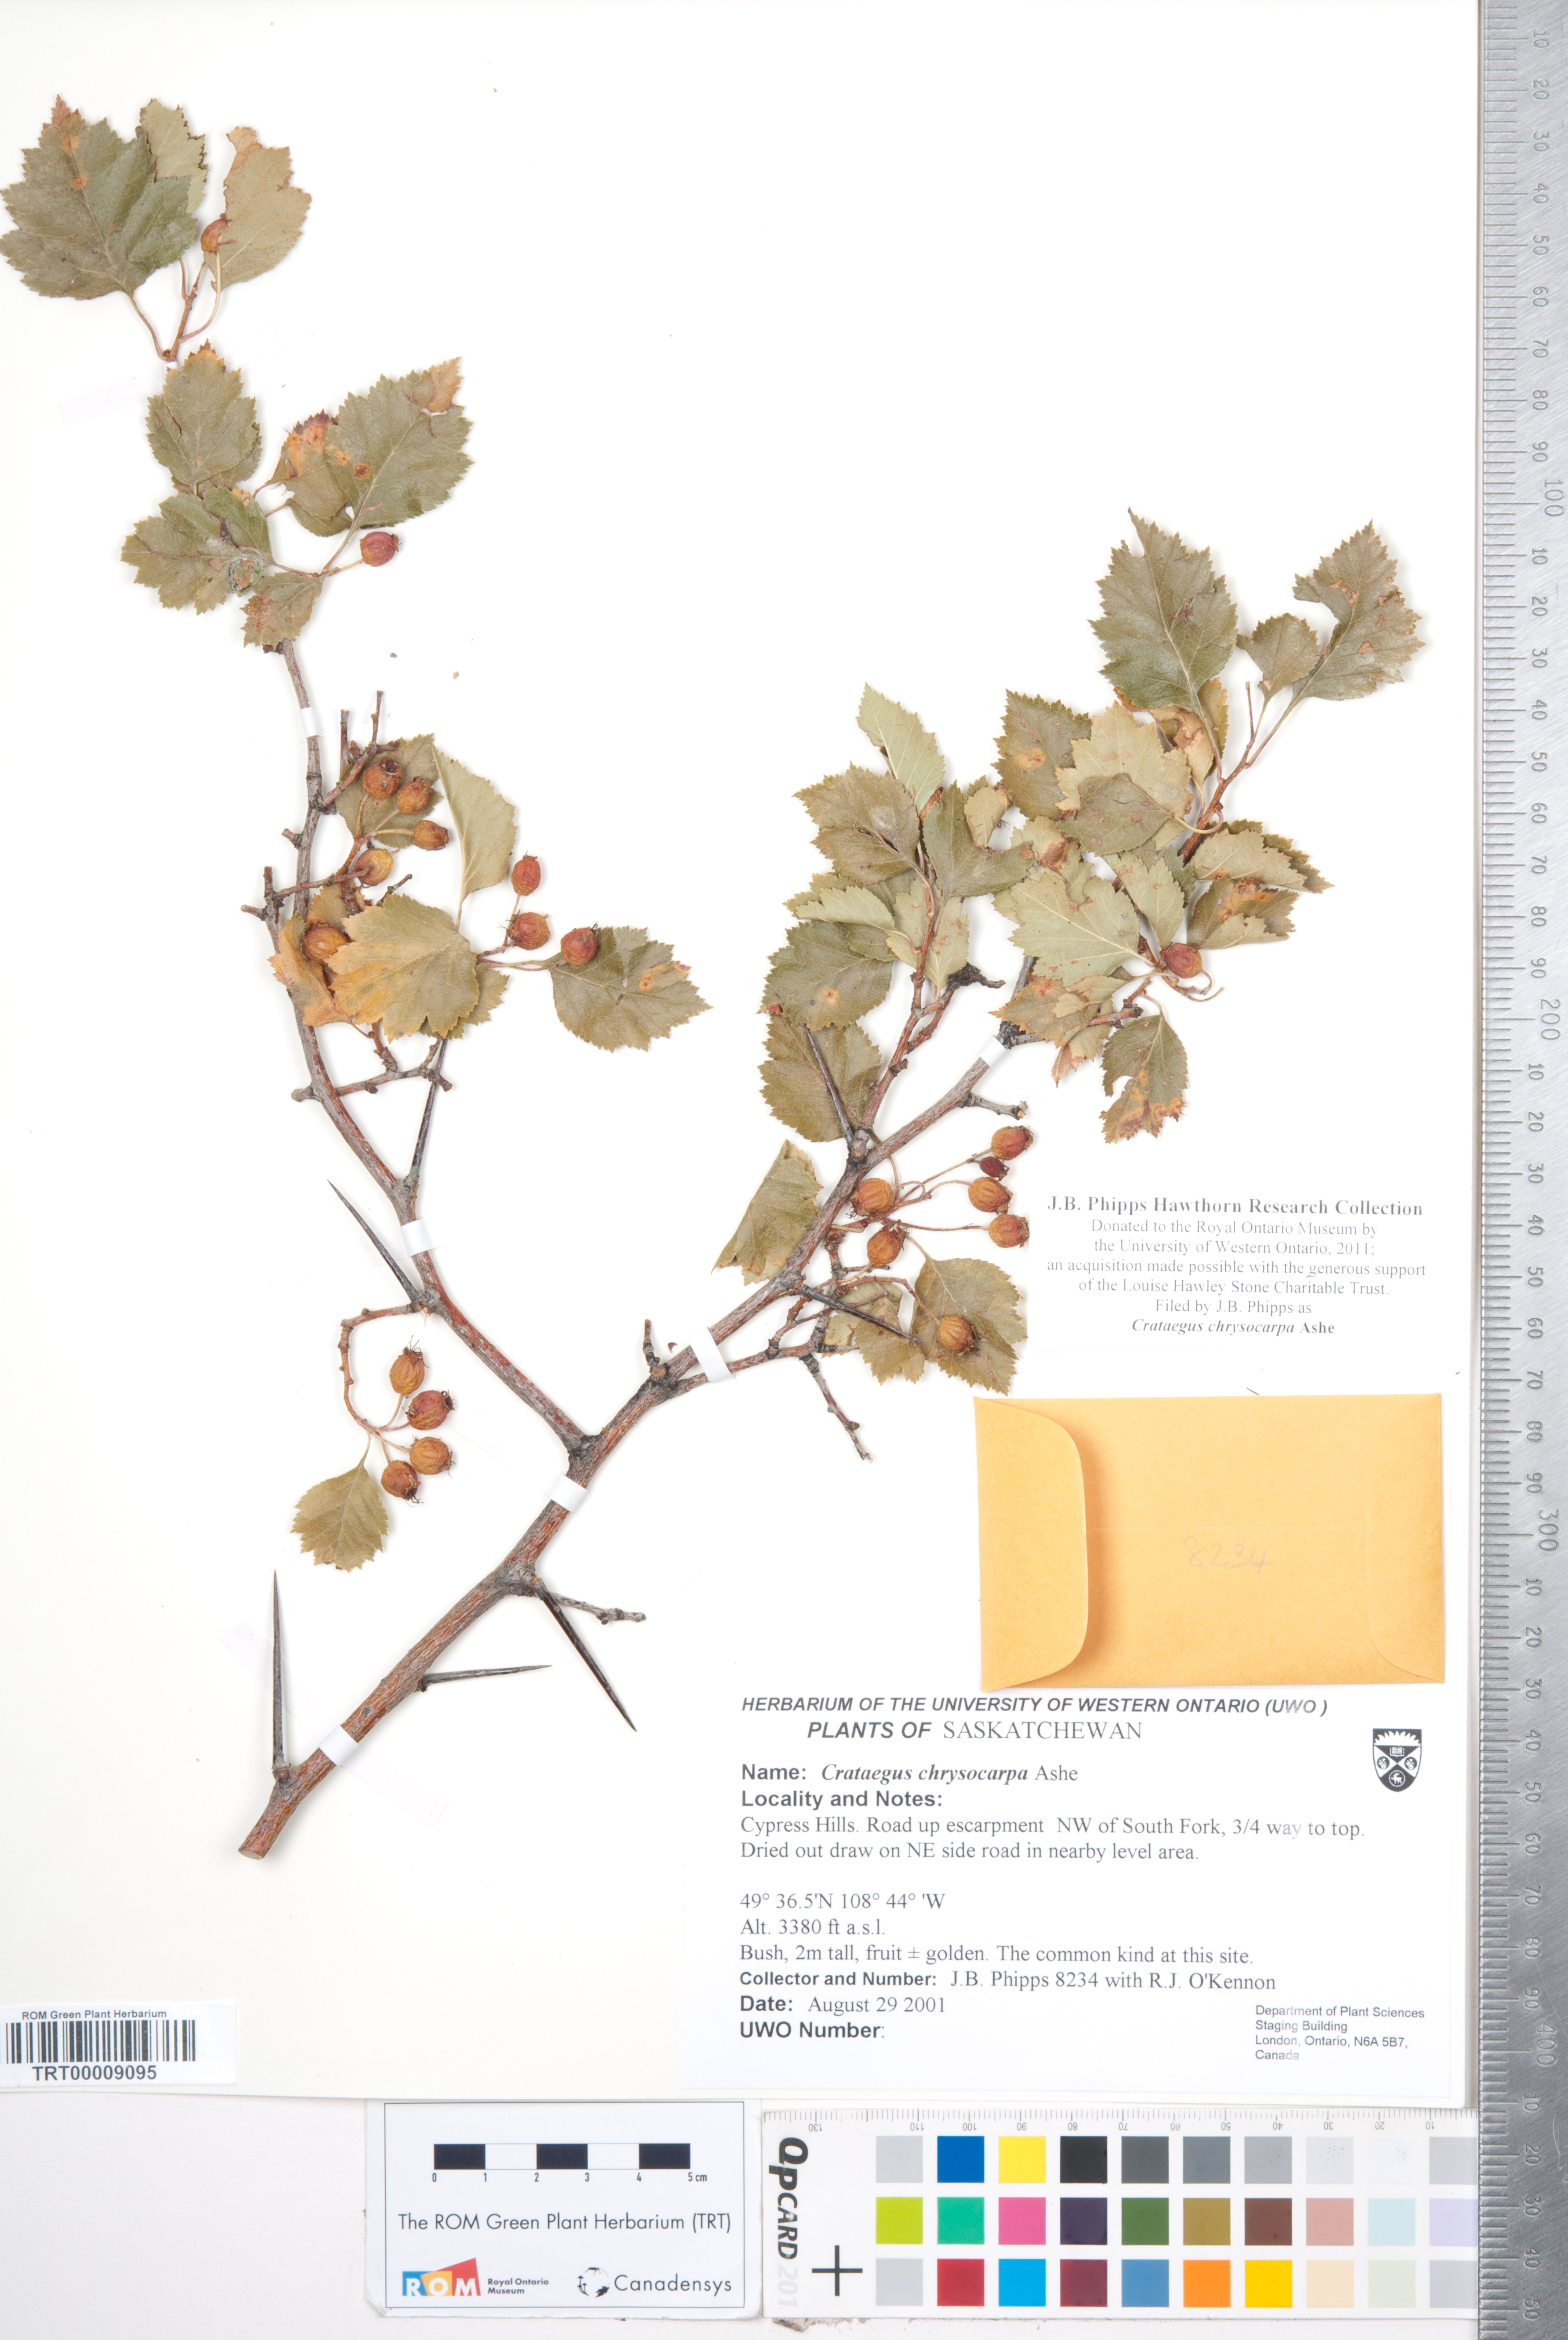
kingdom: Plantae
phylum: Tracheophyta
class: Magnoliopsida
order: Rosales
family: Rosaceae
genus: Crataegus
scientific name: Crataegus chrysocarpa
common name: Fire-berry hawthorn
